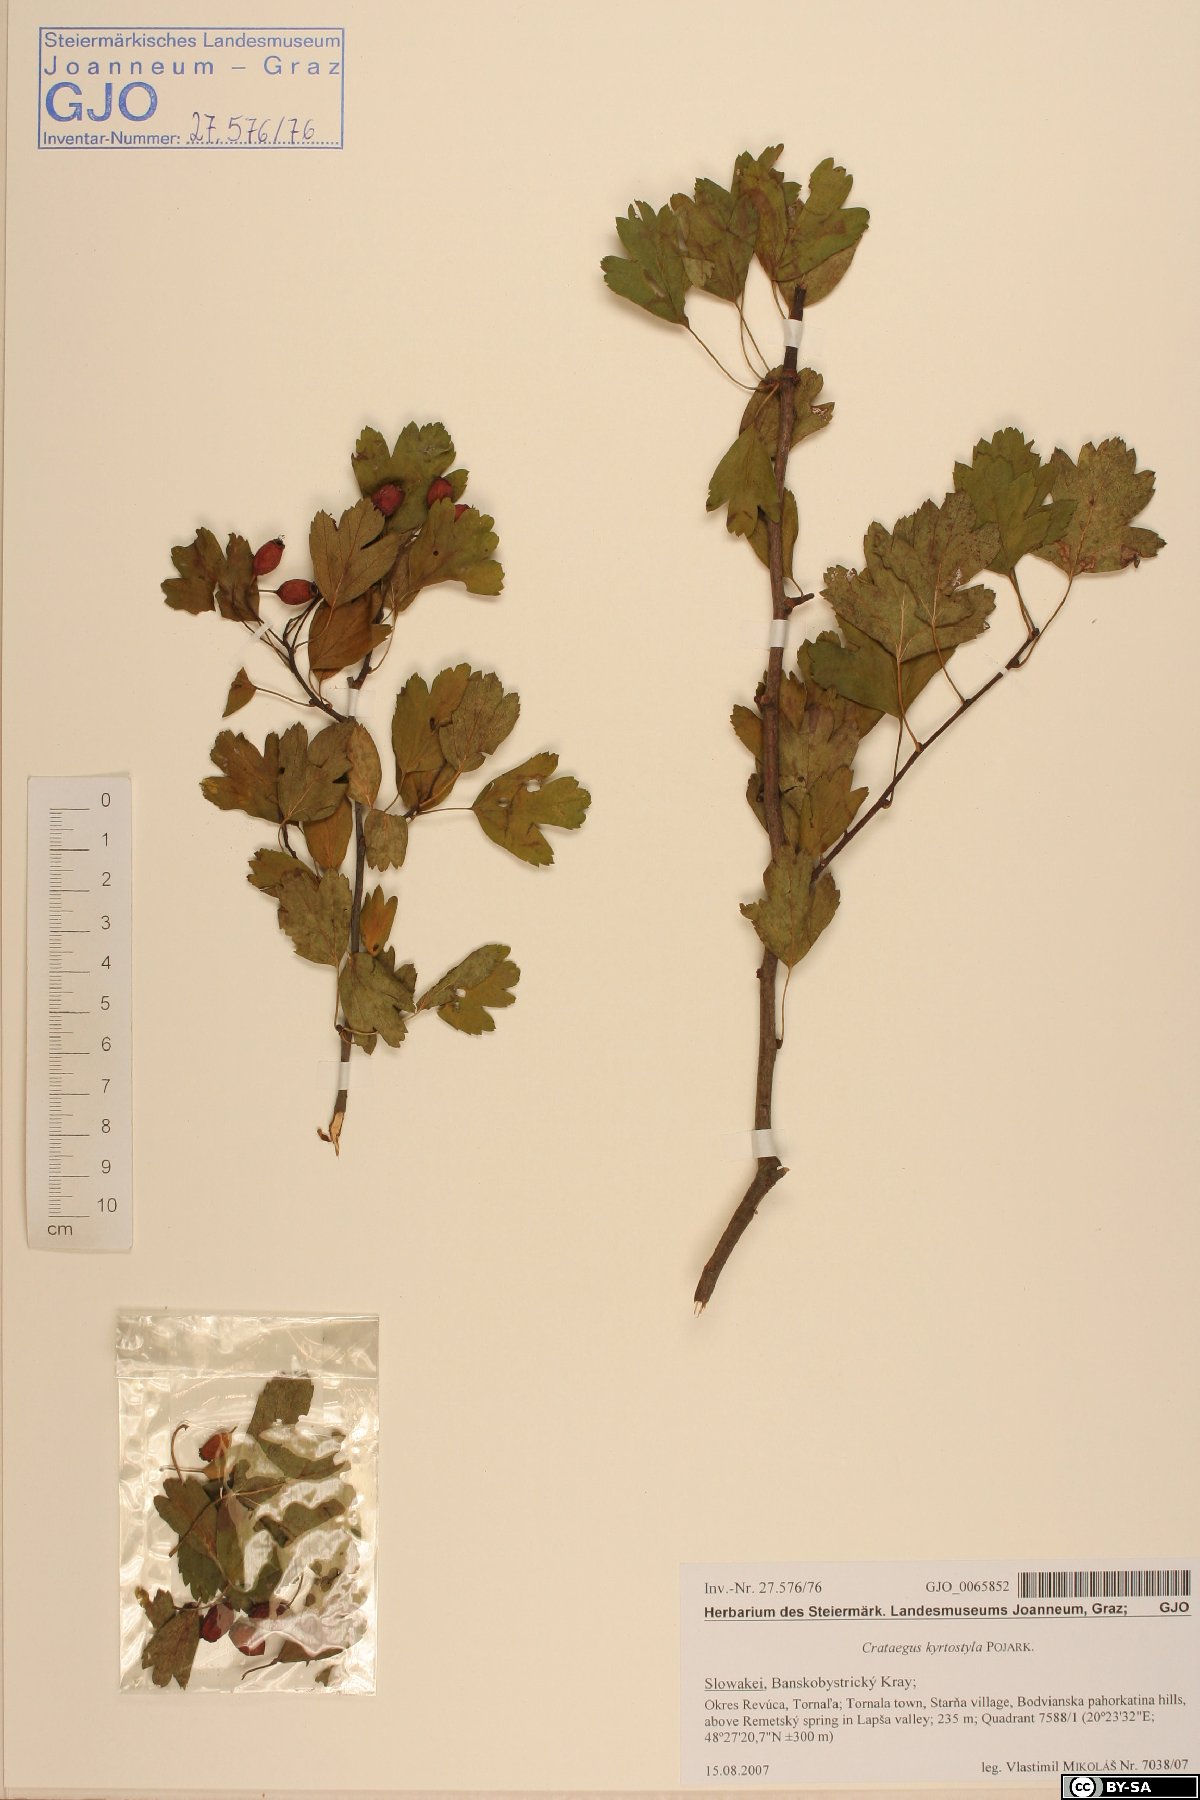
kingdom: Plantae
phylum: Tracheophyta
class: Magnoliopsida
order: Rosales
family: Rosaceae
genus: Crataegus
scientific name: Crataegus kyrtostyla
